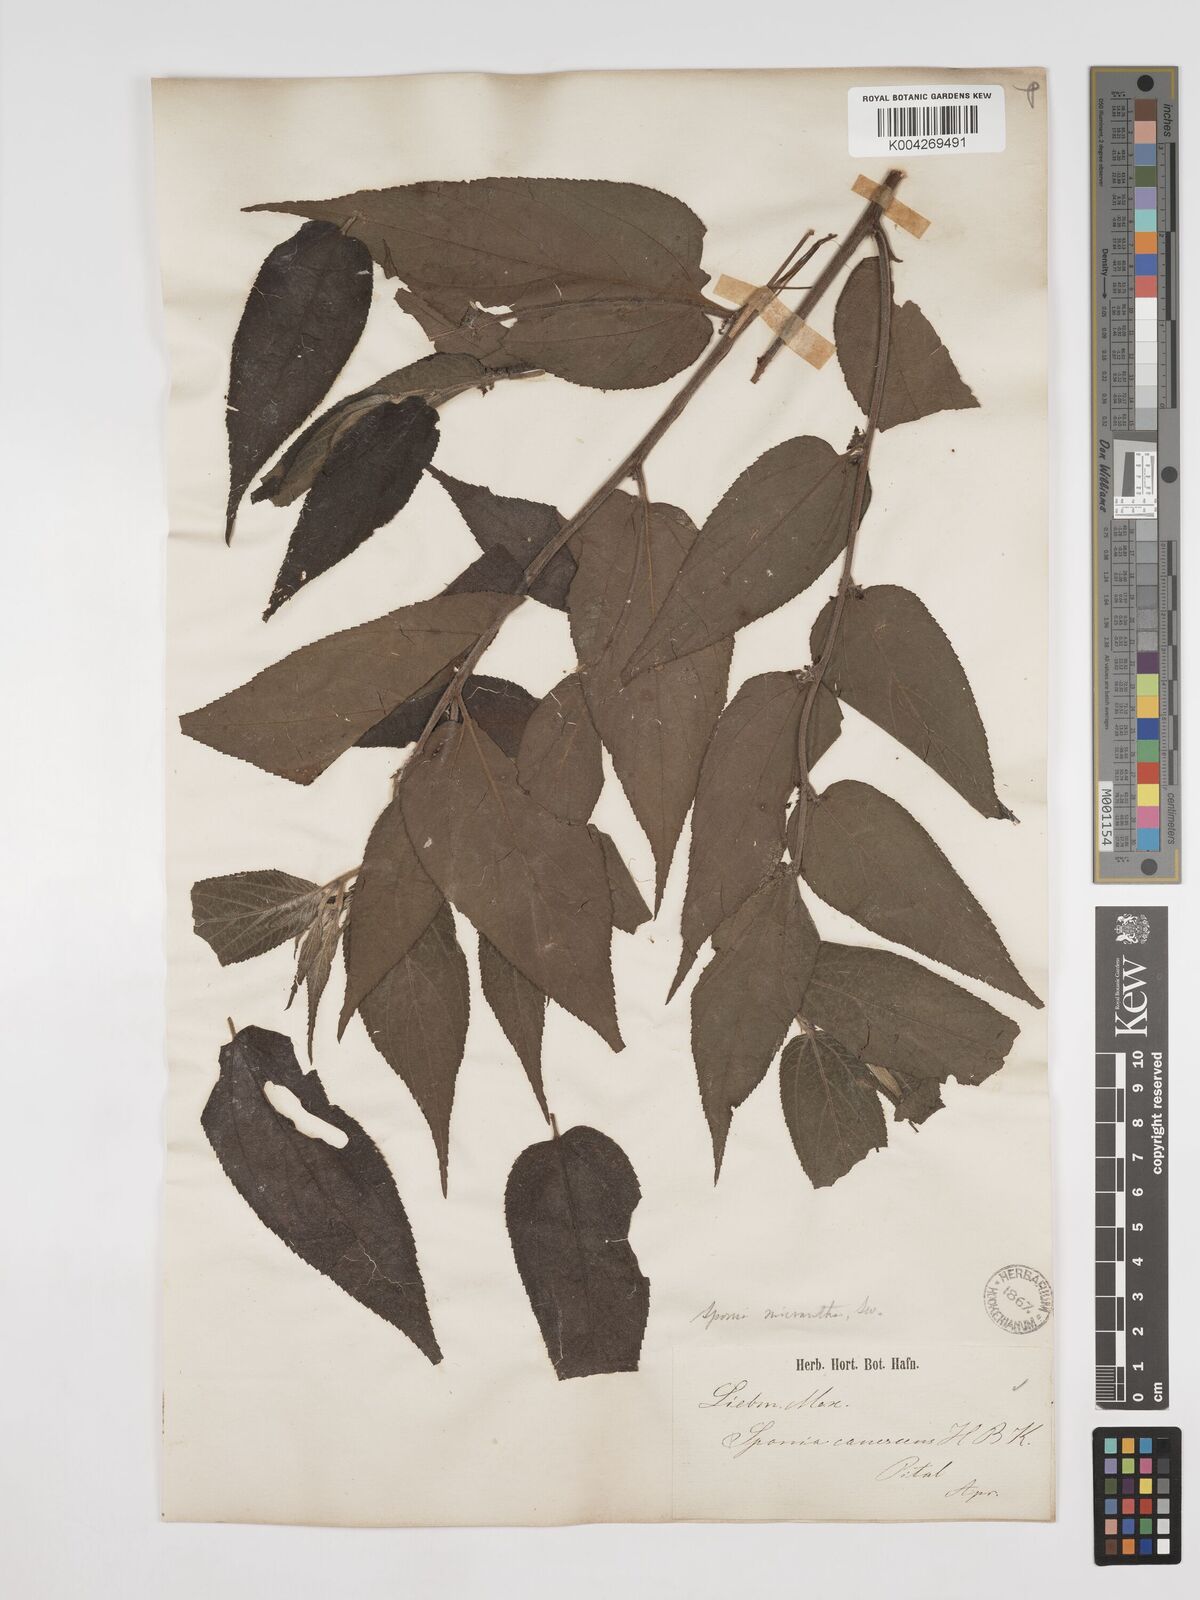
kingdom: Plantae
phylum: Tracheophyta
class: Magnoliopsida
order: Rosales
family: Cannabaceae
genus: Trema
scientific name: Trema micranthum
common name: Jamaican nettletree
